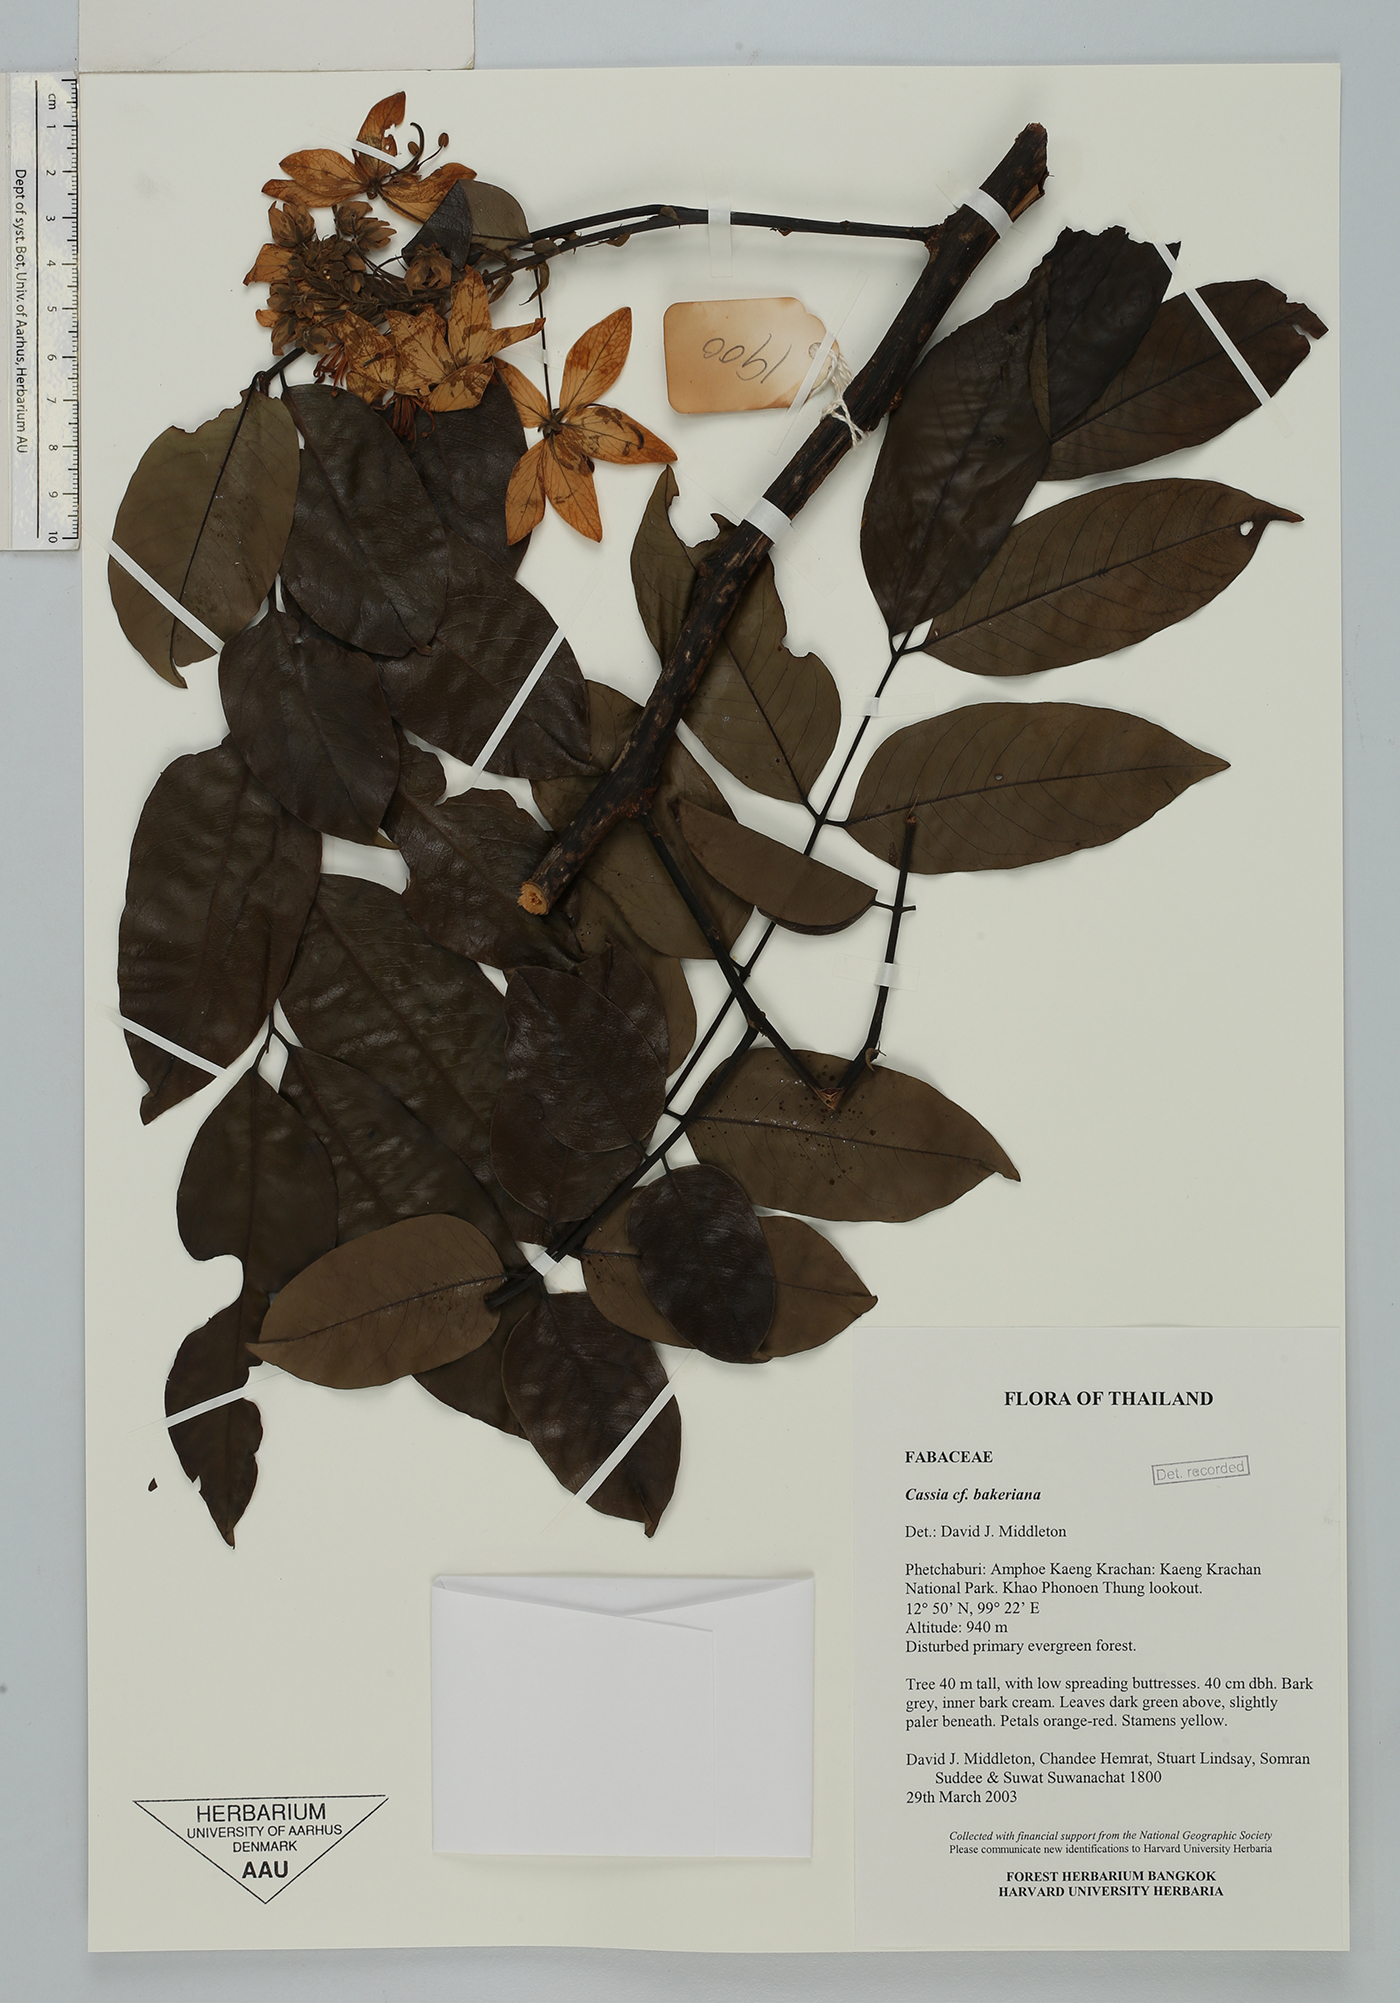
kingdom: Plantae
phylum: Tracheophyta
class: Magnoliopsida
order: Fabales
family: Fabaceae
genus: Cassia
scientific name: Cassia bakeriana
